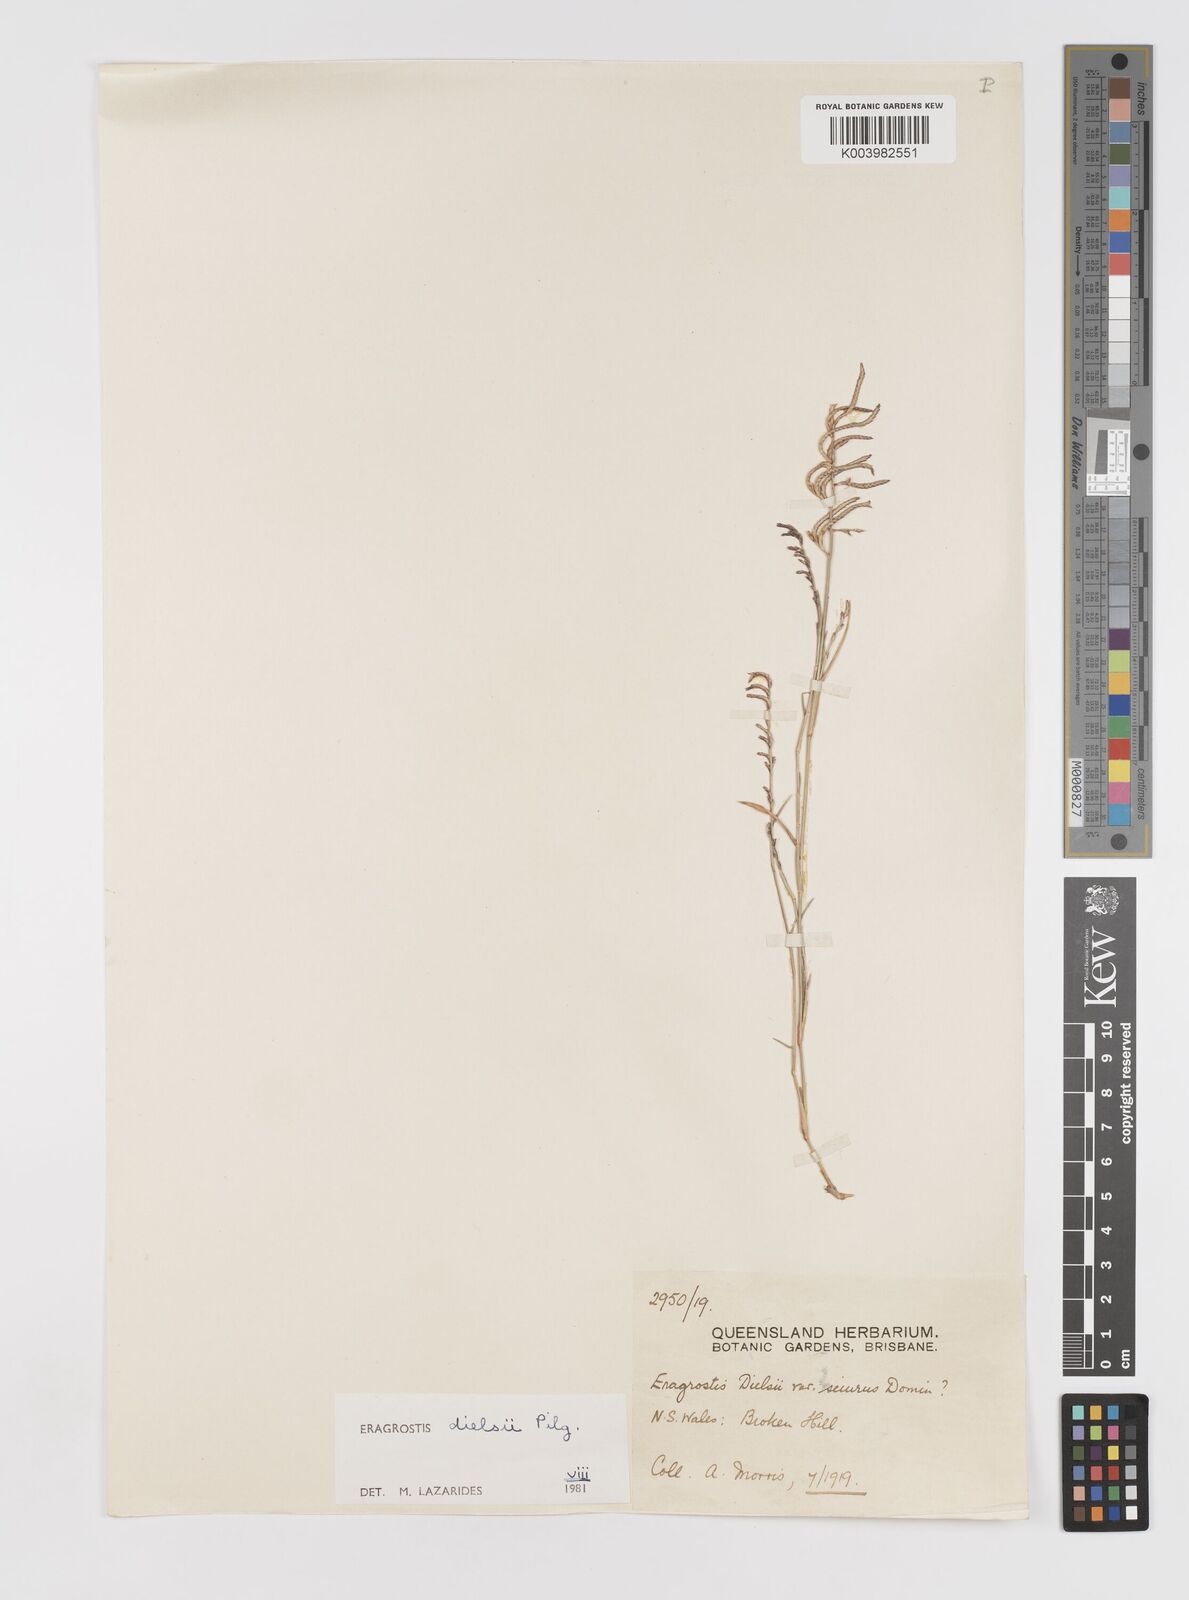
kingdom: Plantae
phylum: Tracheophyta
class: Liliopsida
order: Poales
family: Poaceae
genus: Eragrostis
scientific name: Eragrostis dielsii
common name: Lovegrass
